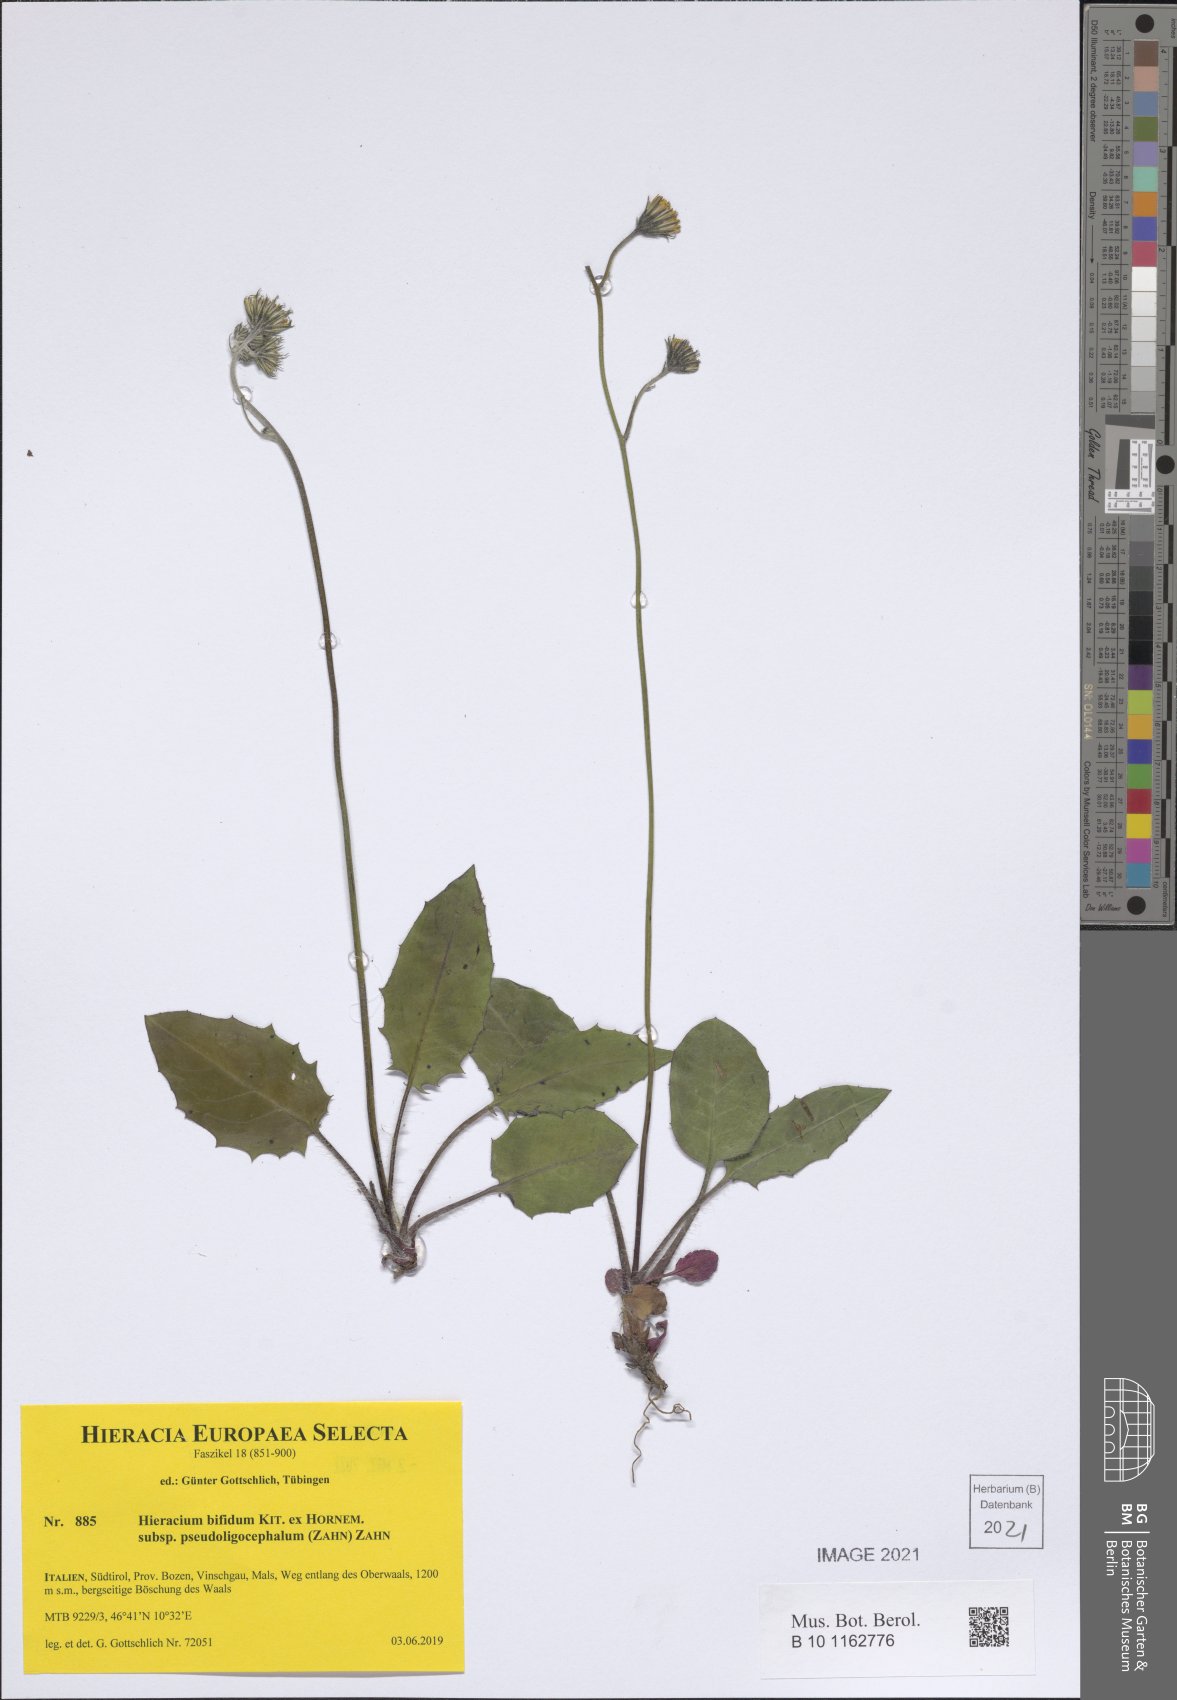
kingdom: Plantae
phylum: Tracheophyta
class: Magnoliopsida
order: Asterales
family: Asteraceae
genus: Hieracium
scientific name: Hieracium bifidum
